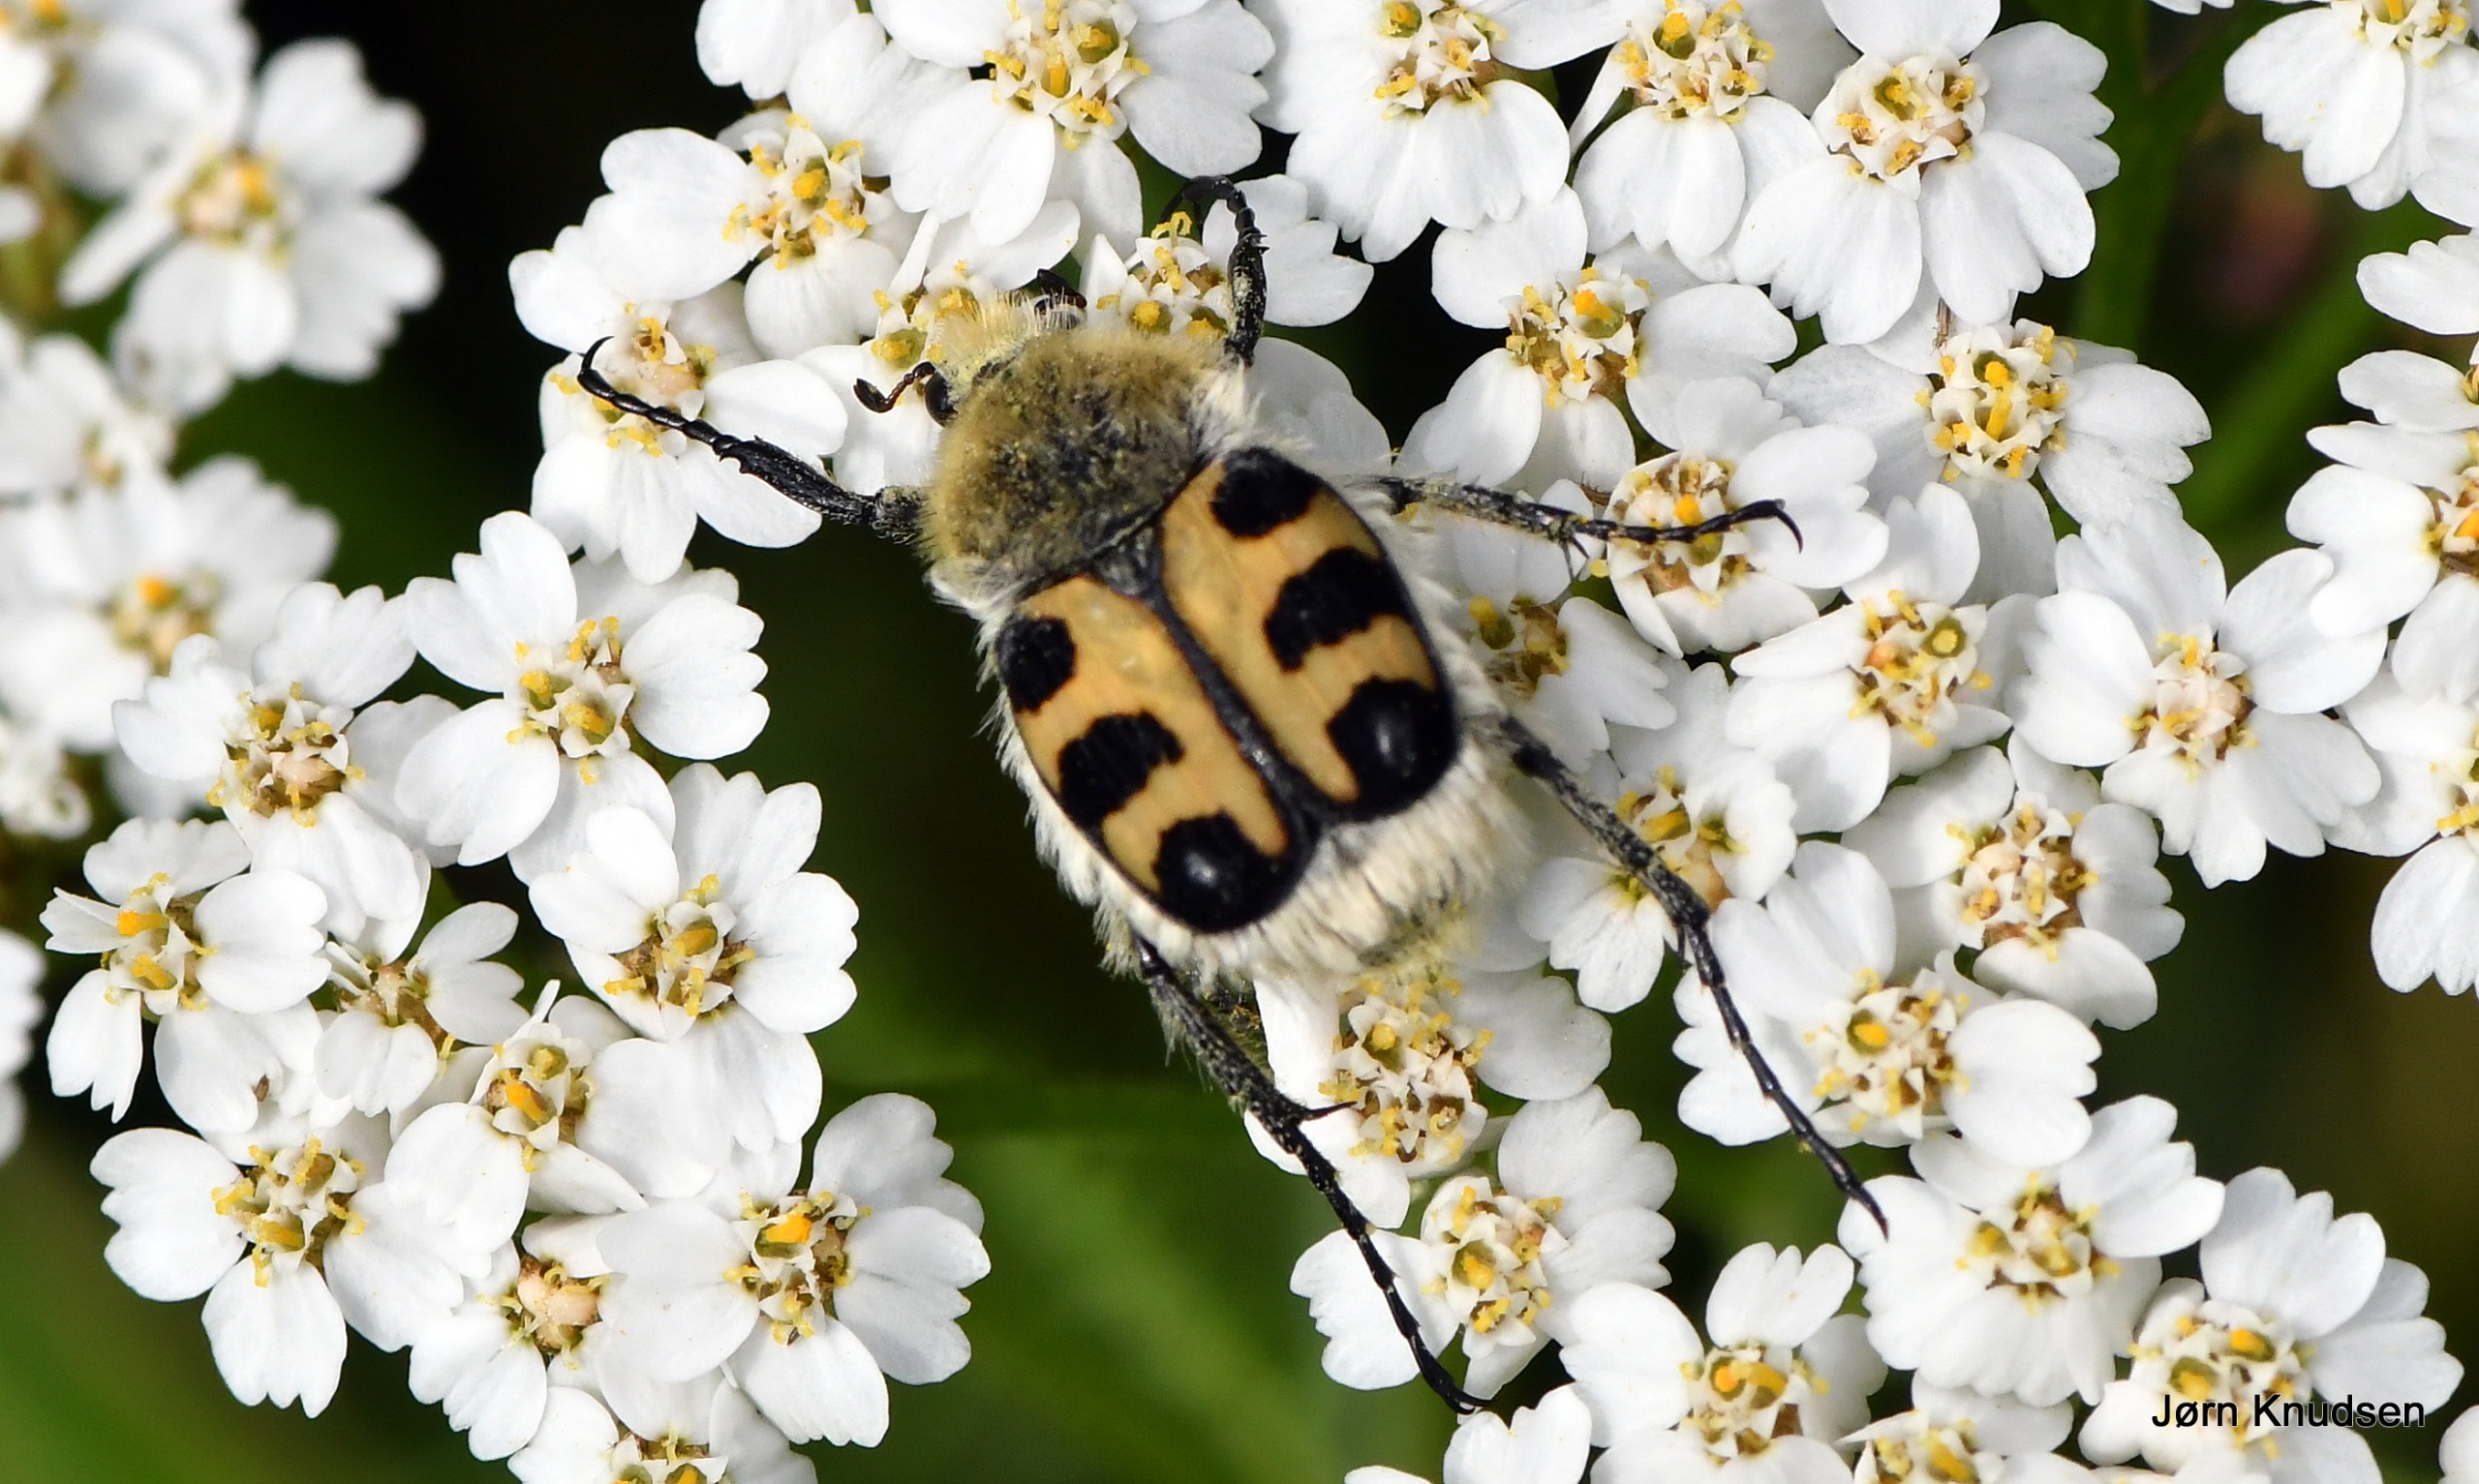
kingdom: Animalia
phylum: Arthropoda
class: Insecta
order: Coleoptera
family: Scarabaeidae
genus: Trichius
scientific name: Trichius gallicus
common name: Lille humlebille
